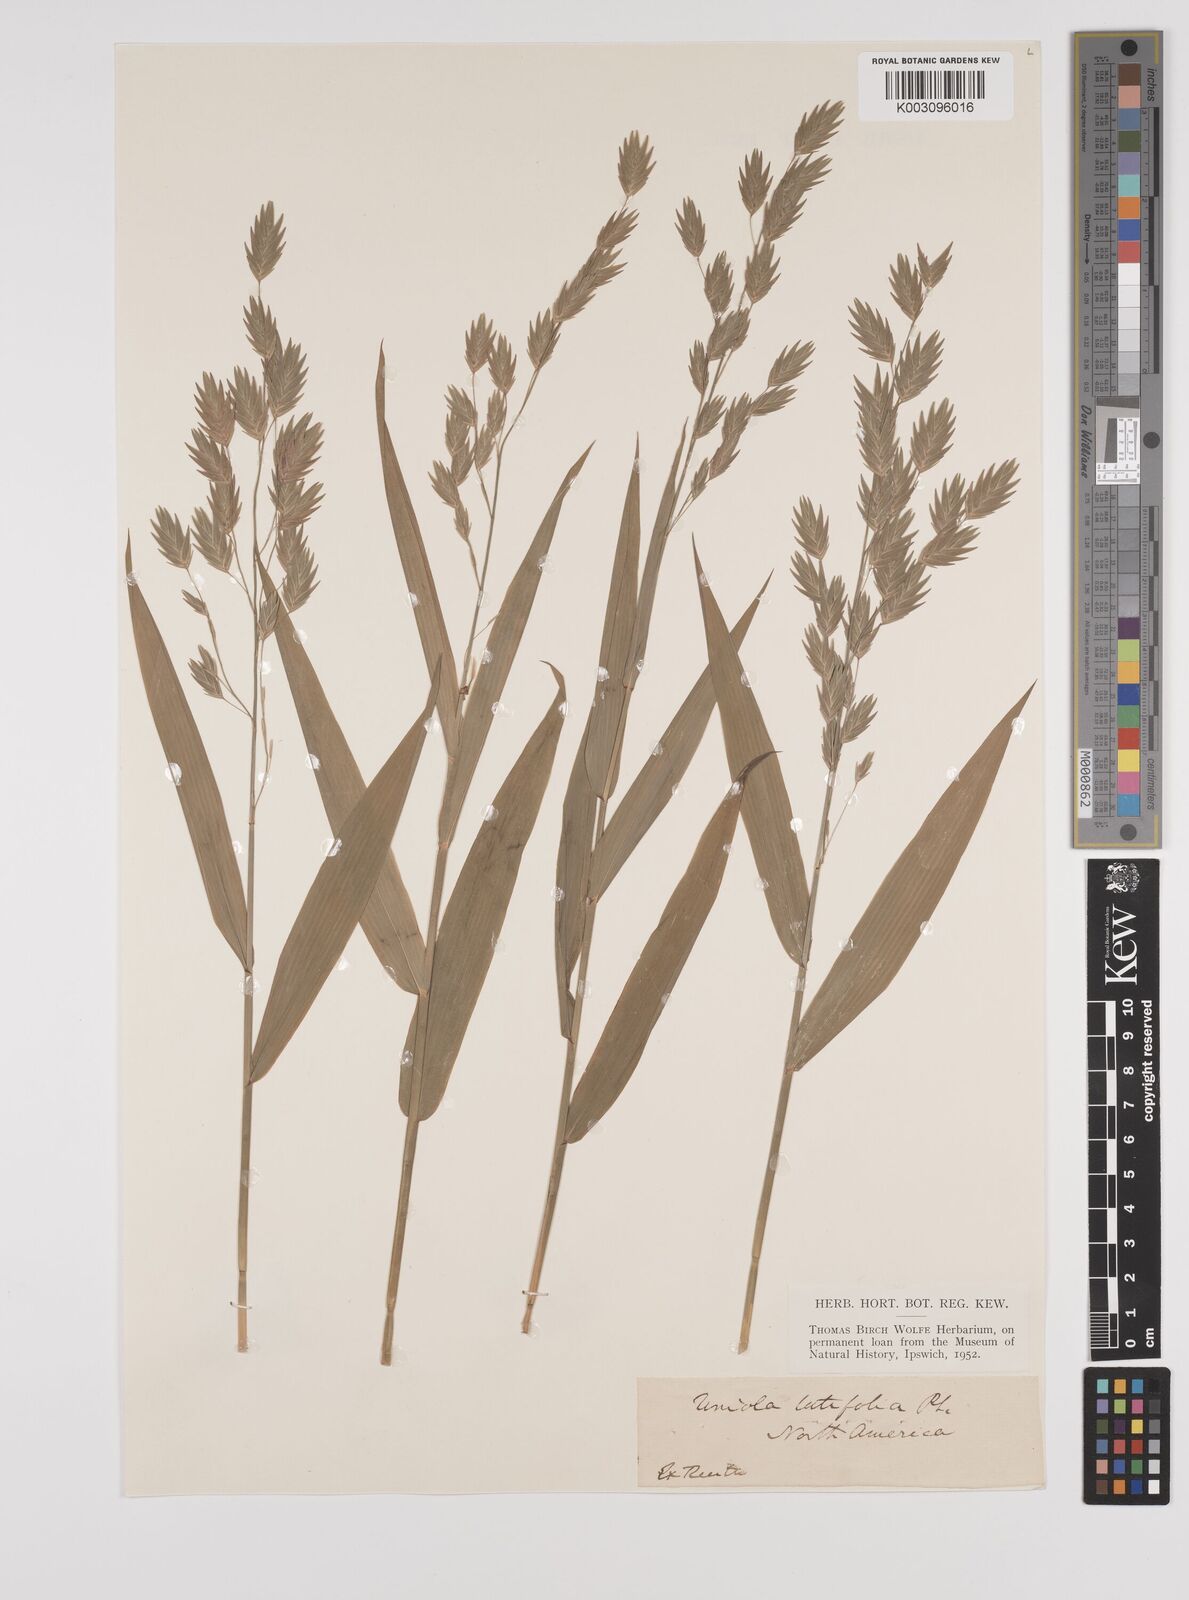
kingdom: Plantae
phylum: Tracheophyta
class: Liliopsida
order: Poales
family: Poaceae
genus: Chasmanthium
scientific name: Chasmanthium latifolium
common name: Broad-leaved chasmanthium
